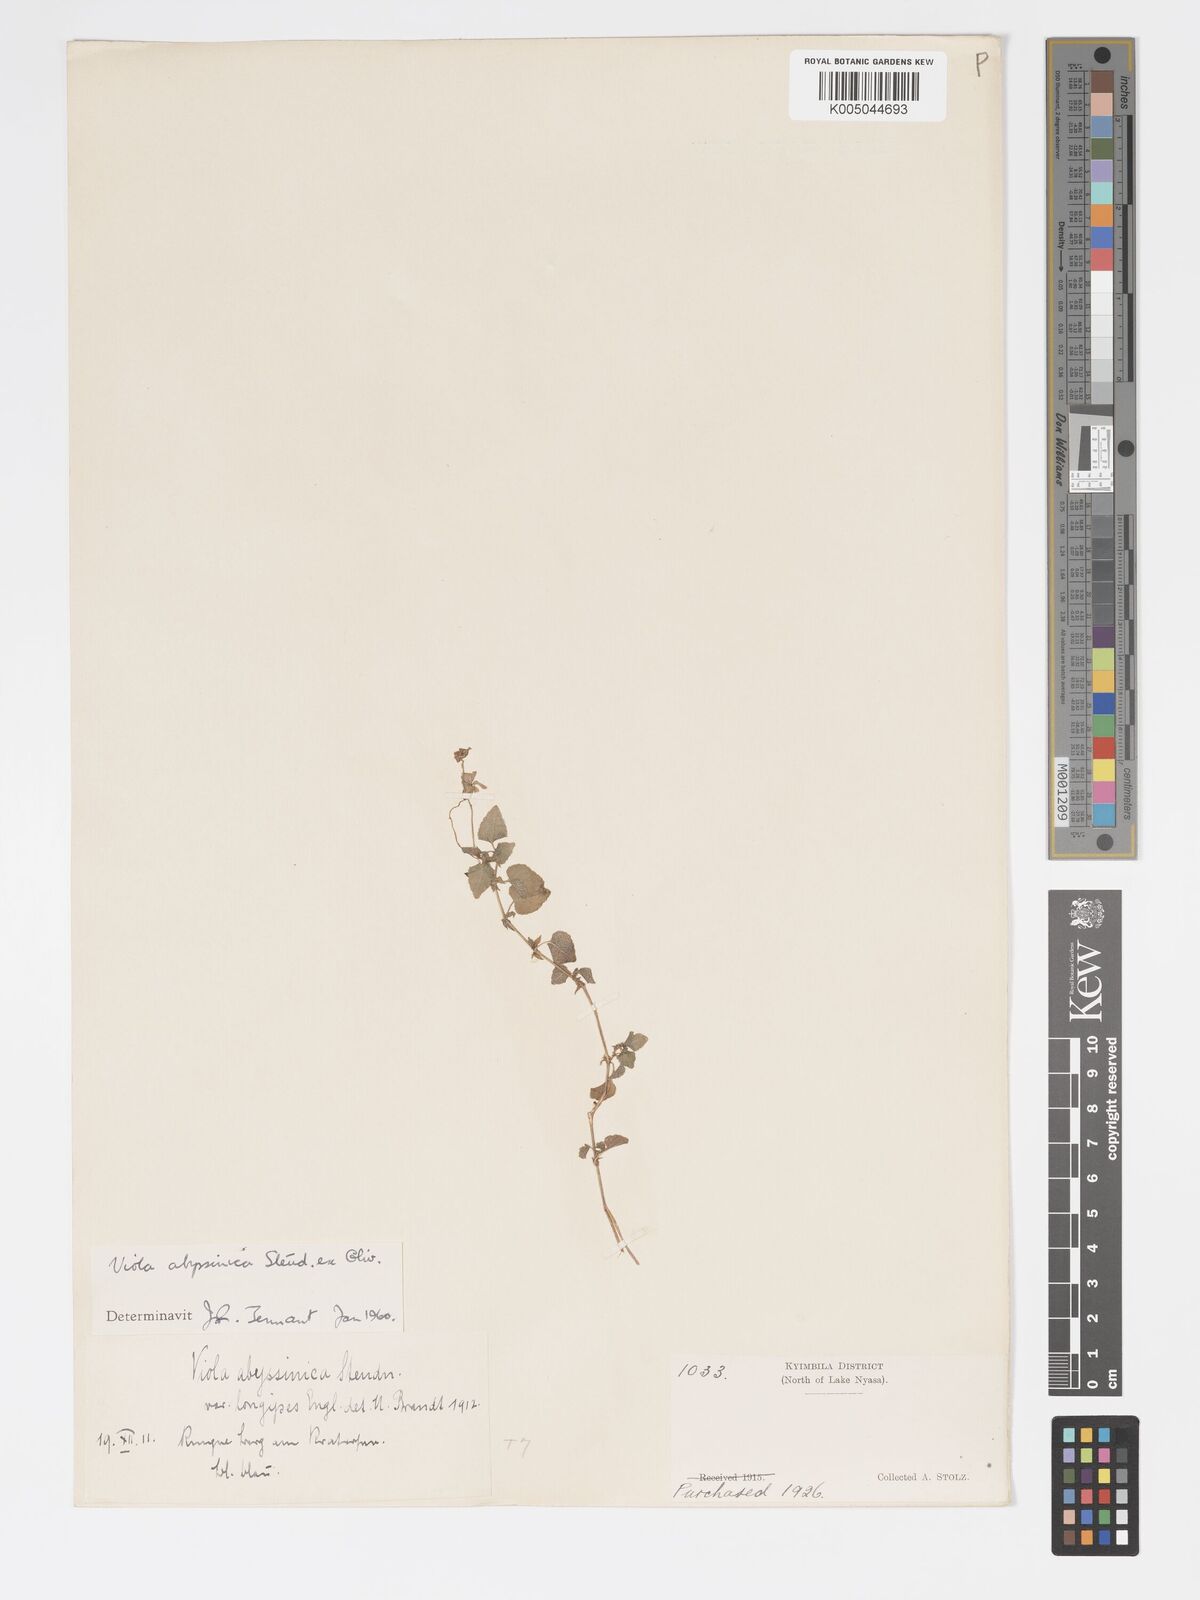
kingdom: Plantae
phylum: Tracheophyta
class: Magnoliopsida
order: Malpighiales
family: Violaceae
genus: Viola
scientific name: Viola abyssinica
